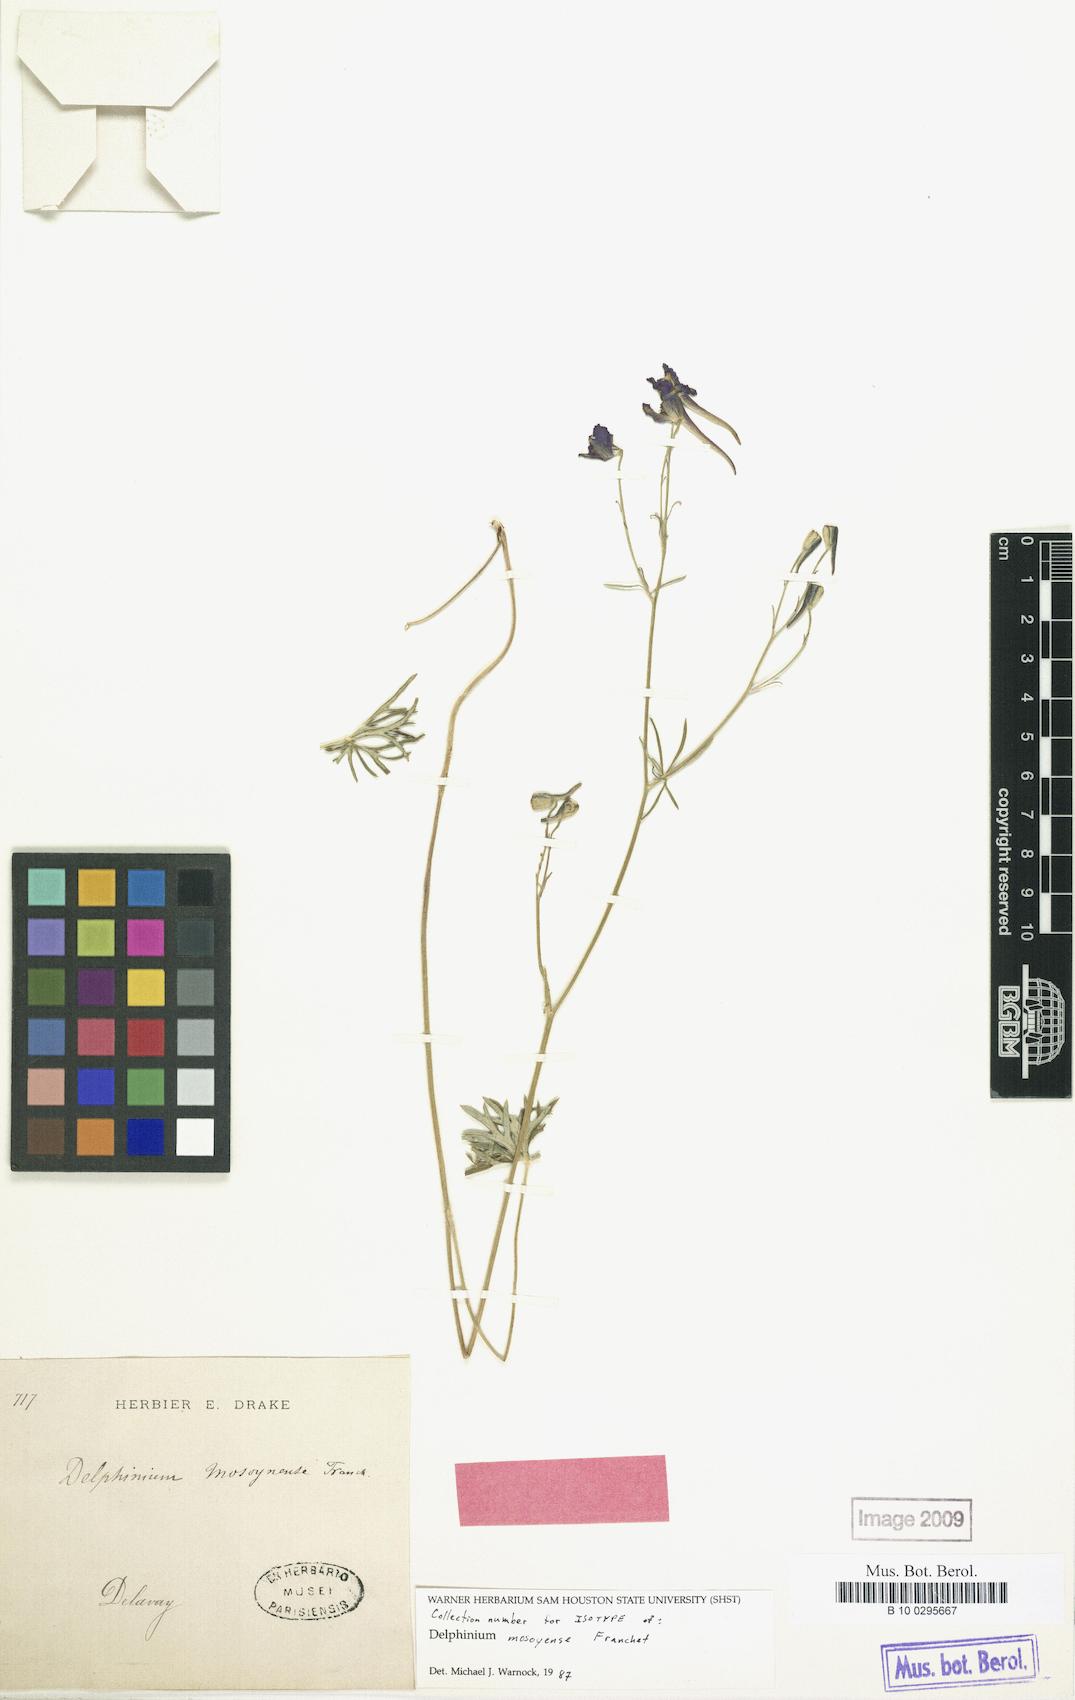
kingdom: Plantae
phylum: Tracheophyta
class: Magnoliopsida
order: Ranunculales
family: Ranunculaceae
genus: Delphinium
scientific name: Delphinium grandiflorum
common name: Siberian larkspur
